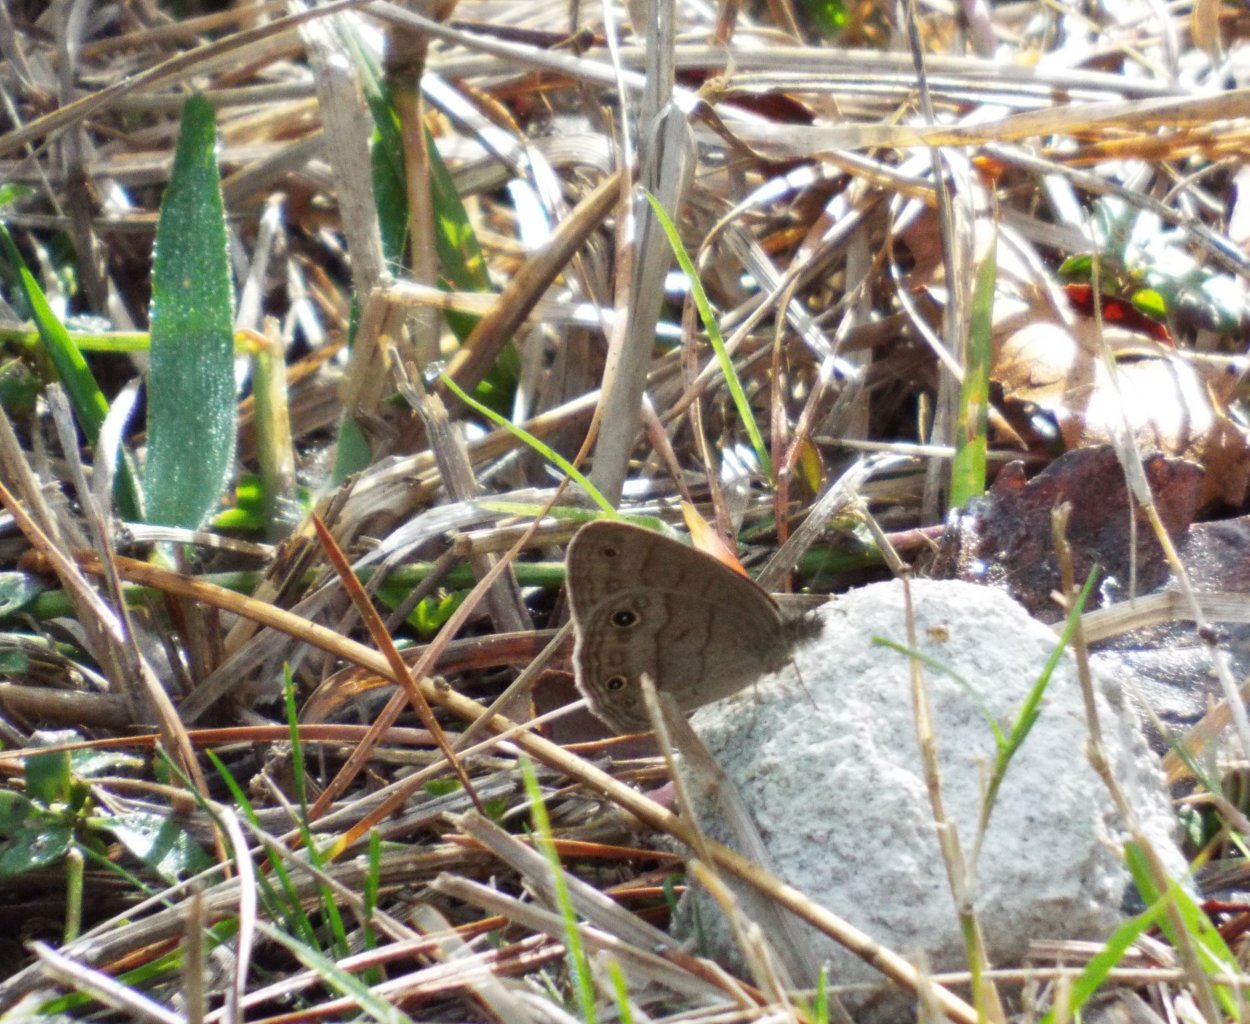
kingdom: Animalia
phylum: Arthropoda
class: Insecta
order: Lepidoptera
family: Nymphalidae
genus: Hermeuptychia
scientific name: Hermeuptychia hermes
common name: Carolina Satyr
